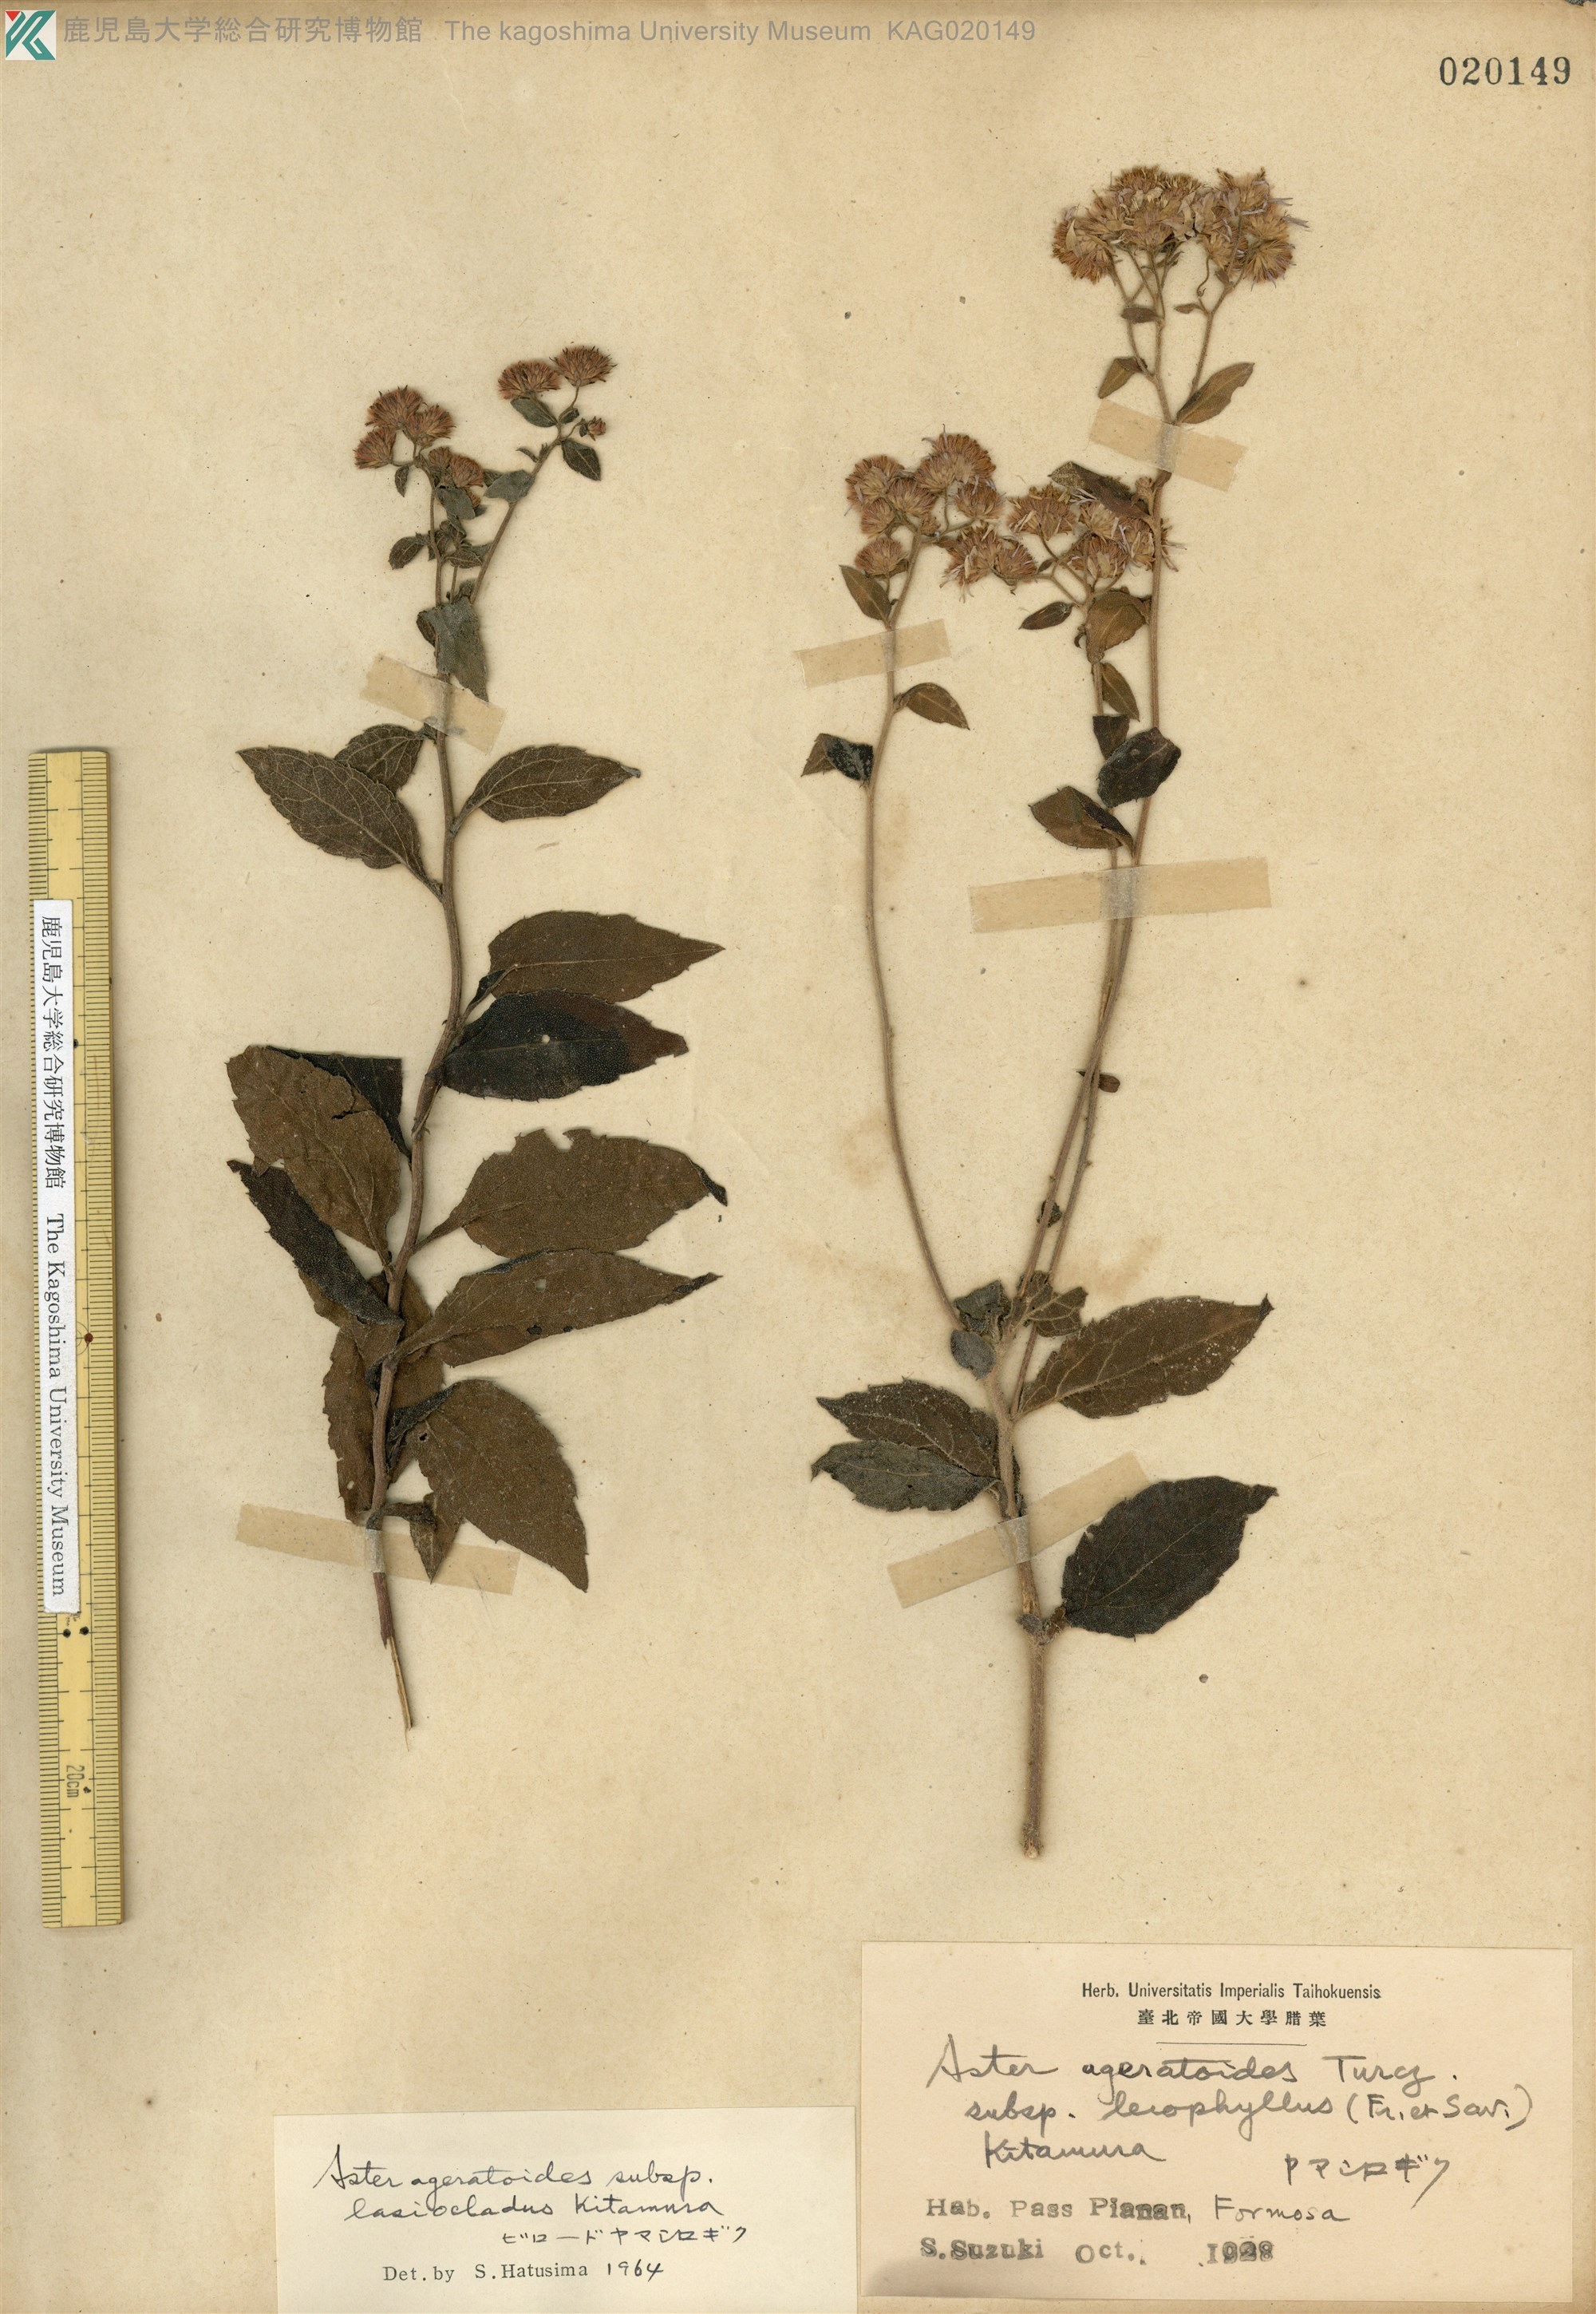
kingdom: Plantae
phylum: Tracheophyta
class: Magnoliopsida
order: Asterales
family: Asteraceae
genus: Aster
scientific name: Aster ageratoides
